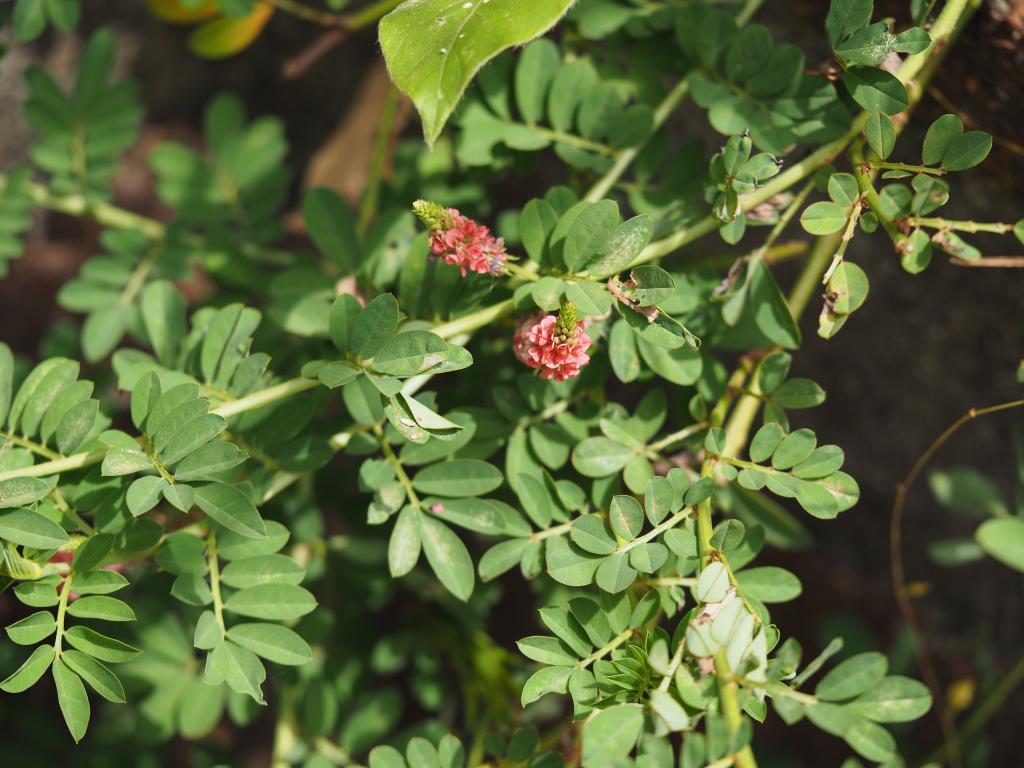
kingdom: Plantae
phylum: Tracheophyta
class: Magnoliopsida
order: Fabales
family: Fabaceae
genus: Indigofera
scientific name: Indigofera spicata
